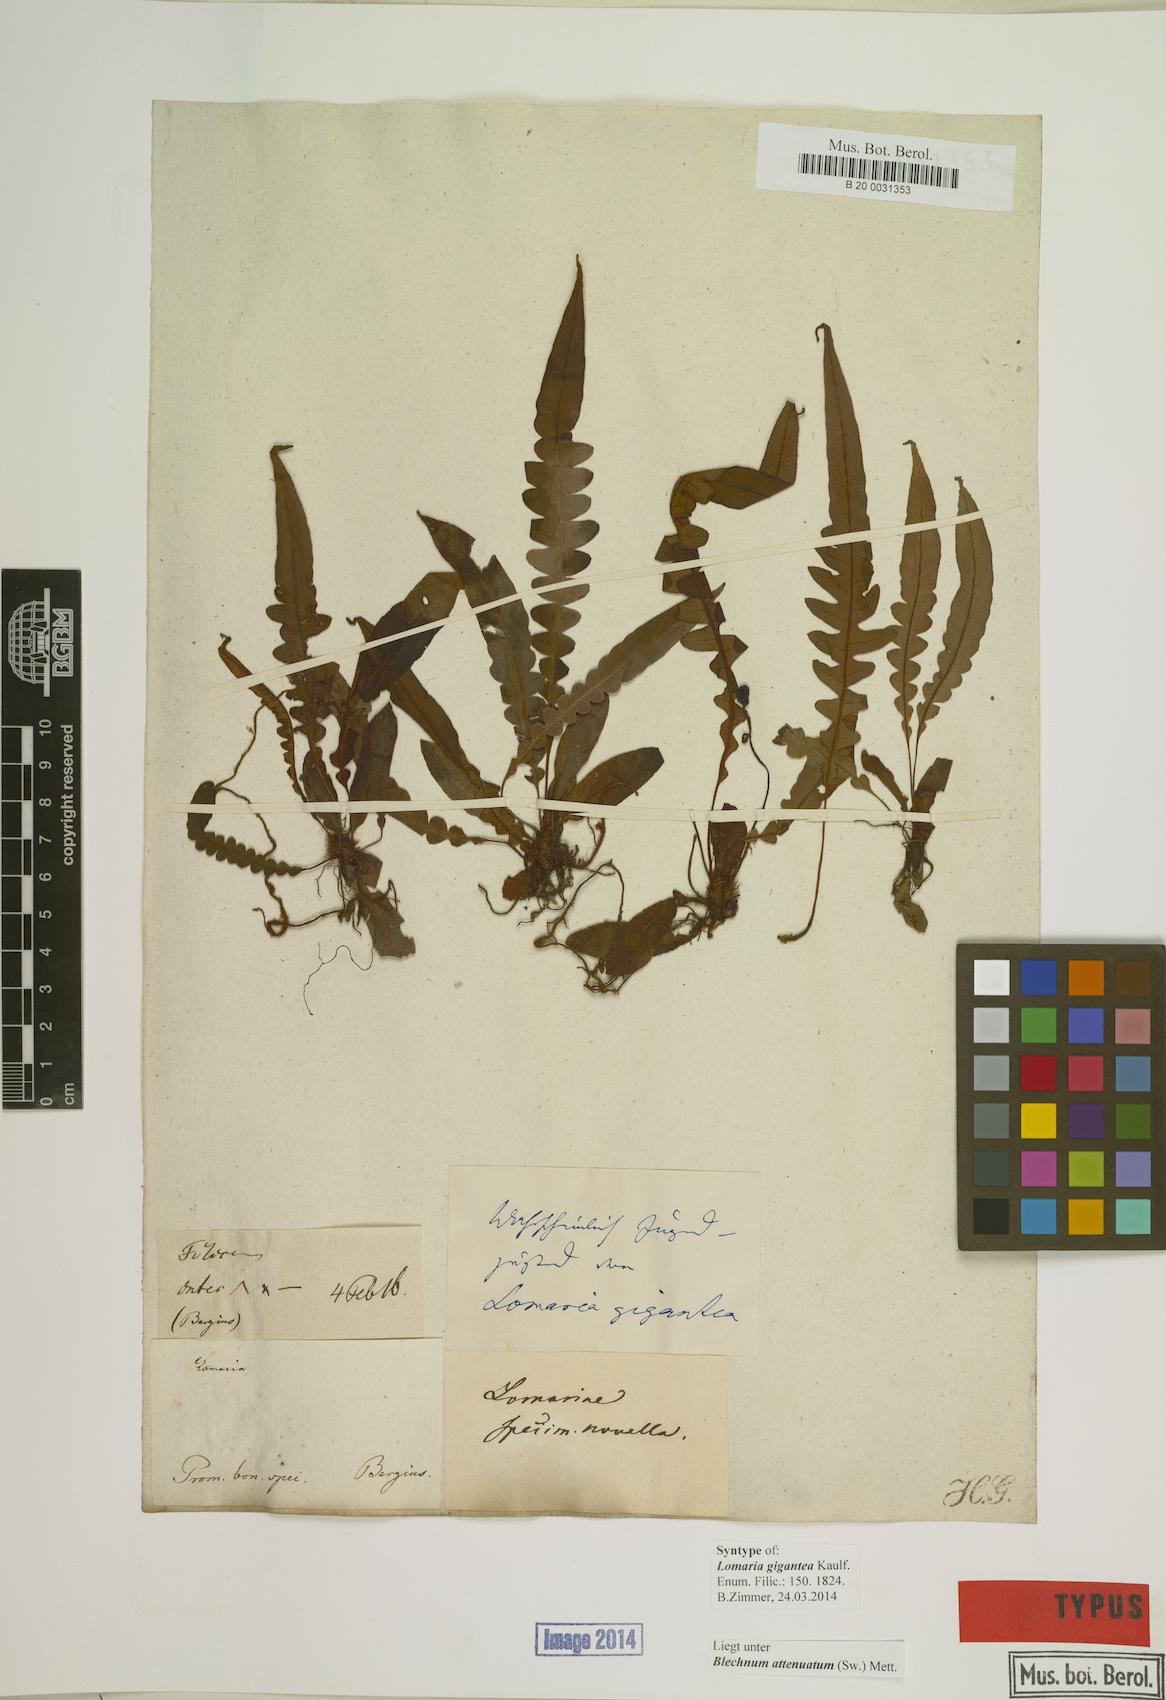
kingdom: Plantae
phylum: Tracheophyta
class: Polypodiopsida
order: Polypodiales
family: Blechnaceae
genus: Lomaridium
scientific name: Lomaridium attenuatum
